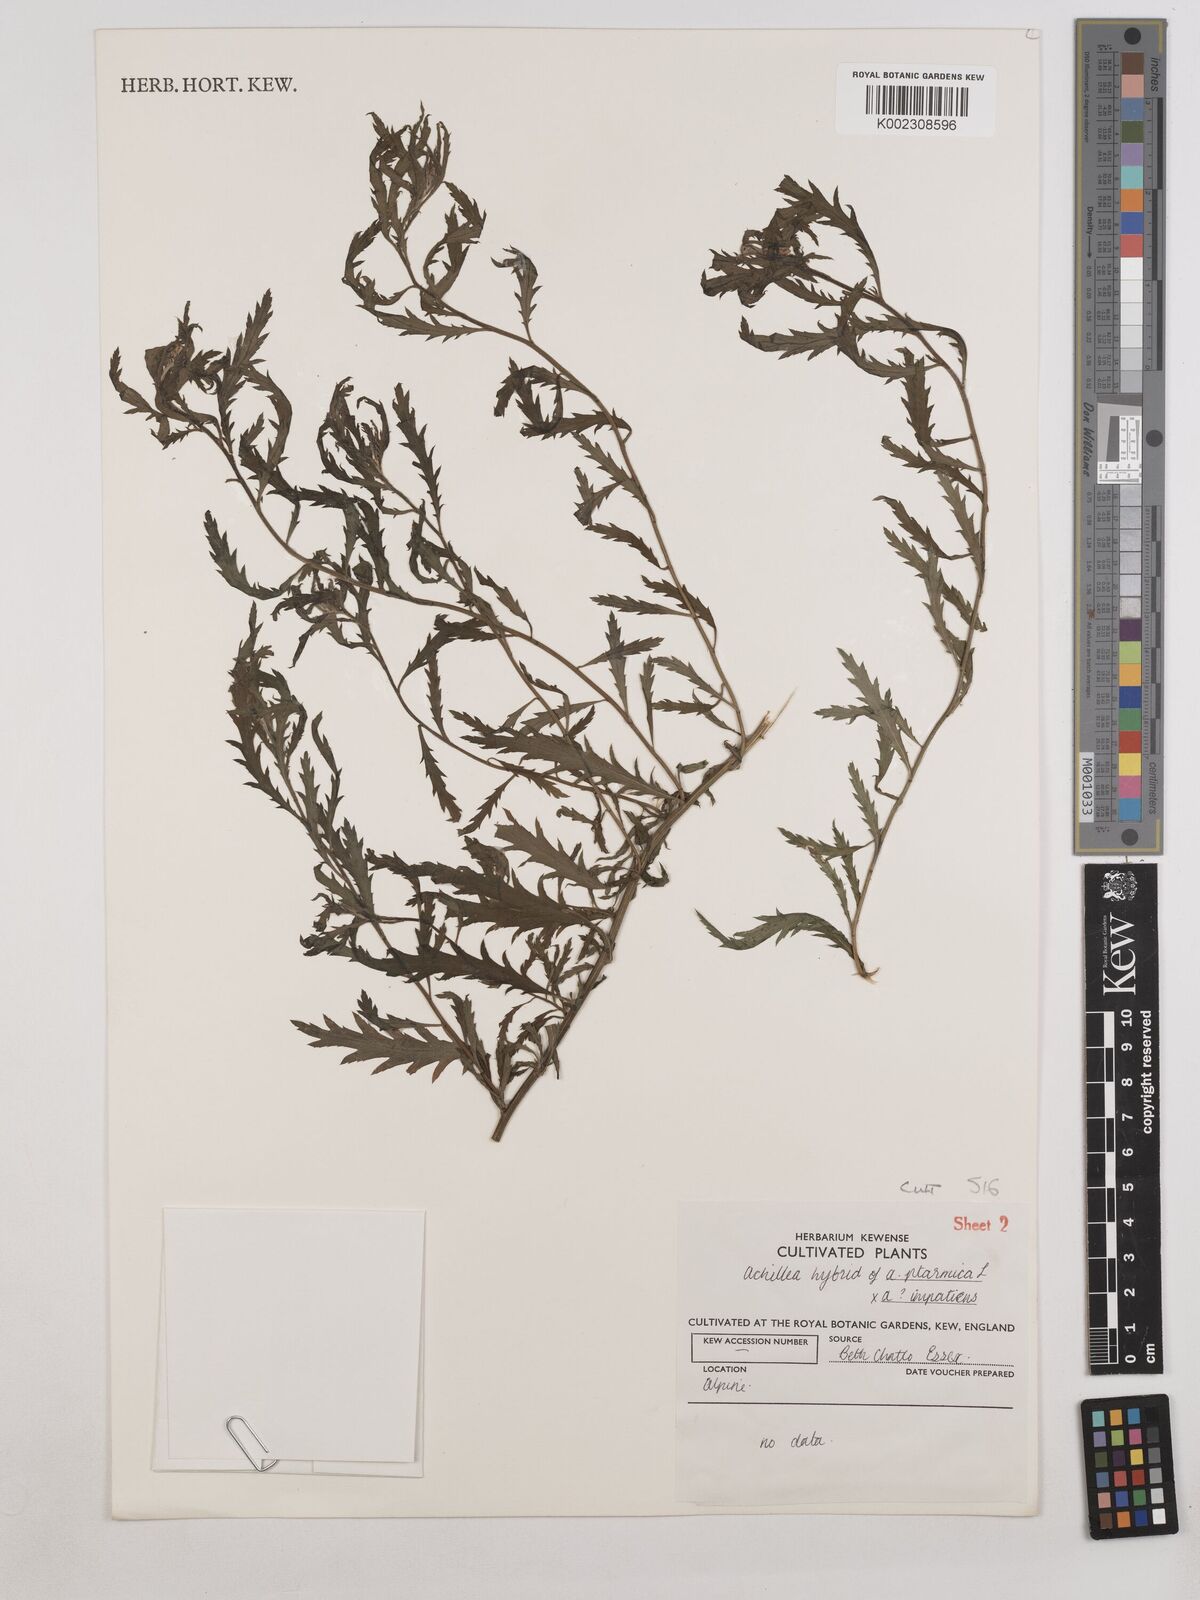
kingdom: Plantae
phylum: Tracheophyta
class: Magnoliopsida
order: Asterales
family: Asteraceae
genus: Achillea
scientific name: Achillea ptarmica
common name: Sneezeweed
